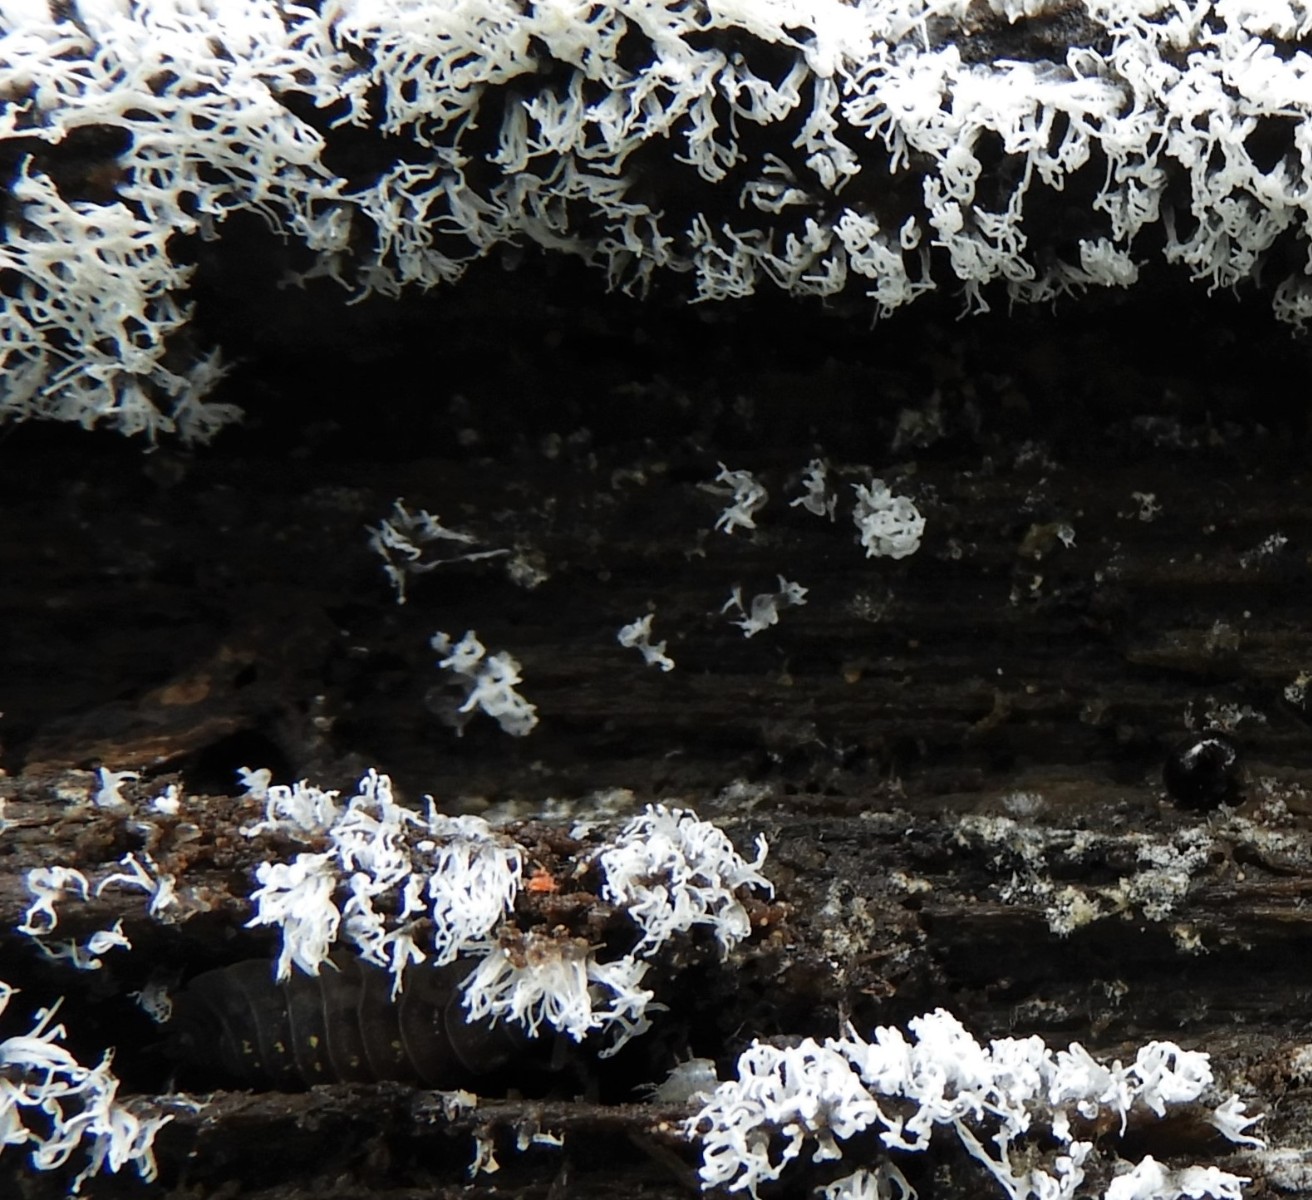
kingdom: Protozoa
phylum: Mycetozoa
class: Protosteliomycetes
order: Ceratiomyxales
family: Ceratiomyxaceae
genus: Ceratiomyxa
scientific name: Ceratiomyxa fruticulosa
